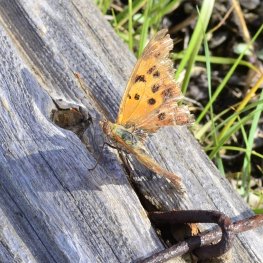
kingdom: Animalia
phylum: Arthropoda
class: Insecta
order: Lepidoptera
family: Nymphalidae
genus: Polygonia
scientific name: Polygonia interrogationis
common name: Question Mark
